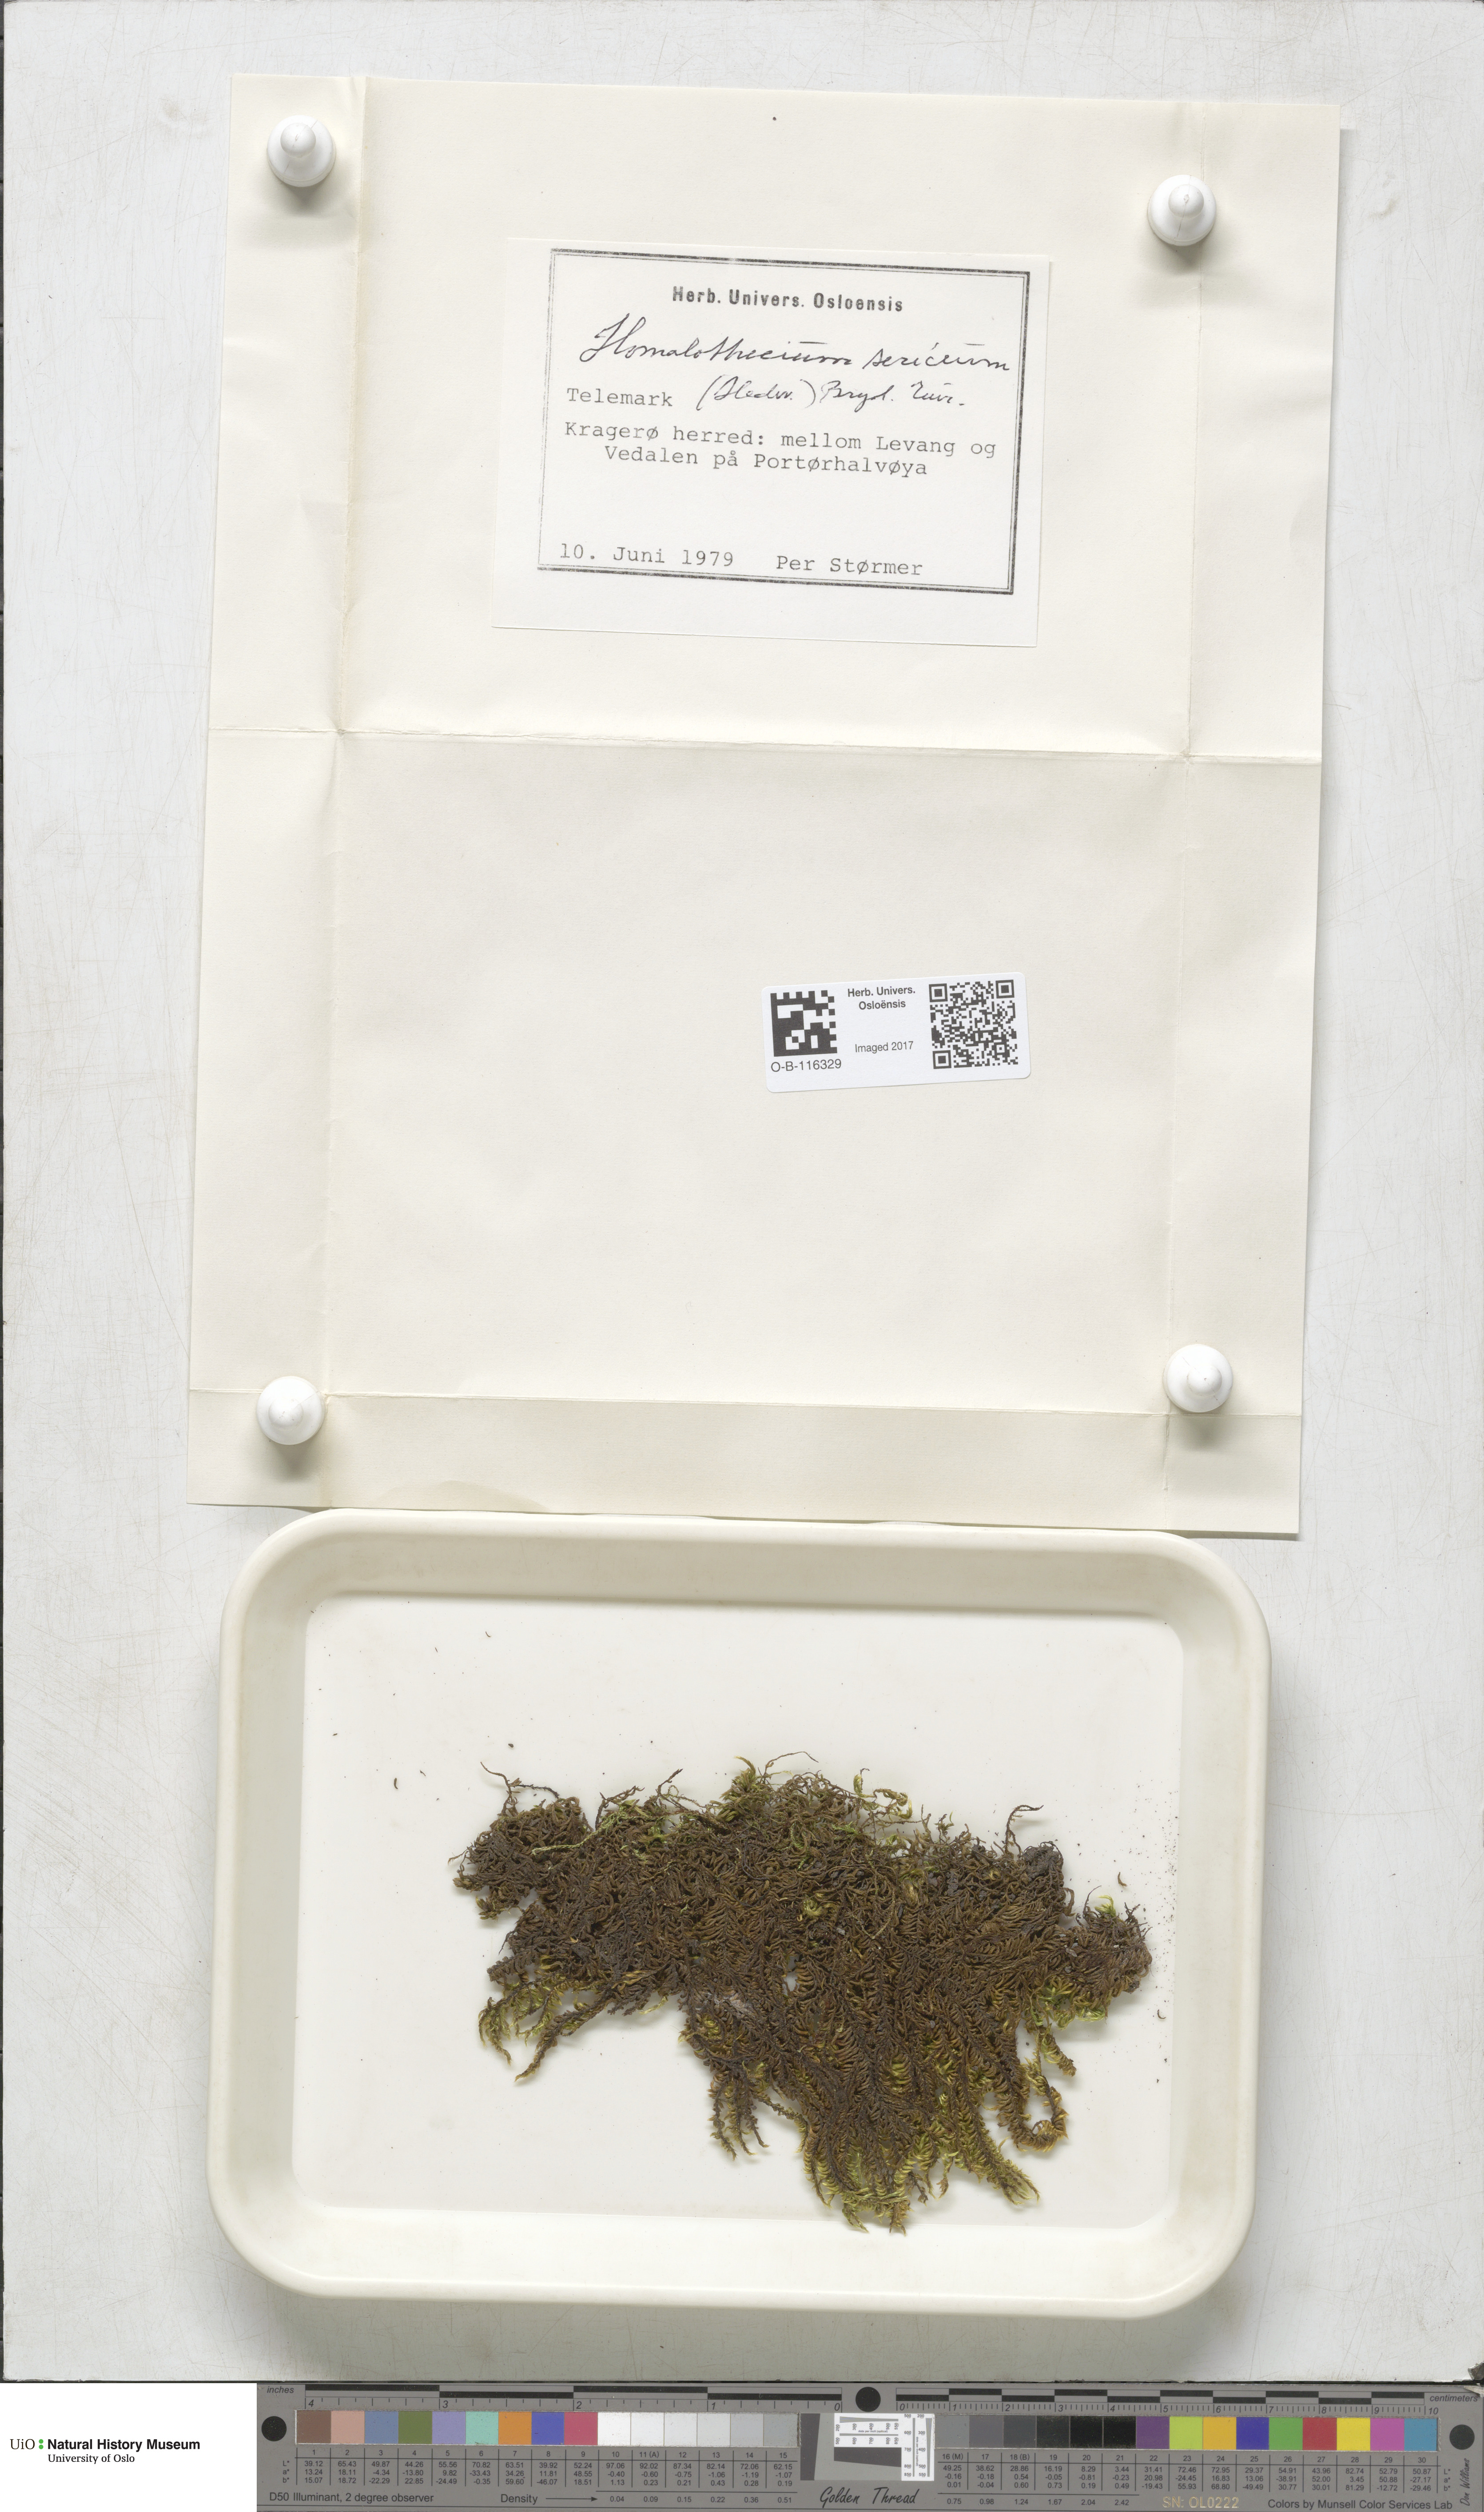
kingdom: Plantae
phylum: Bryophyta
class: Bryopsida
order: Hypnales
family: Brachytheciaceae
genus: Homalothecium
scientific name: Homalothecium sericeum
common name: Silky wall feather-moss
